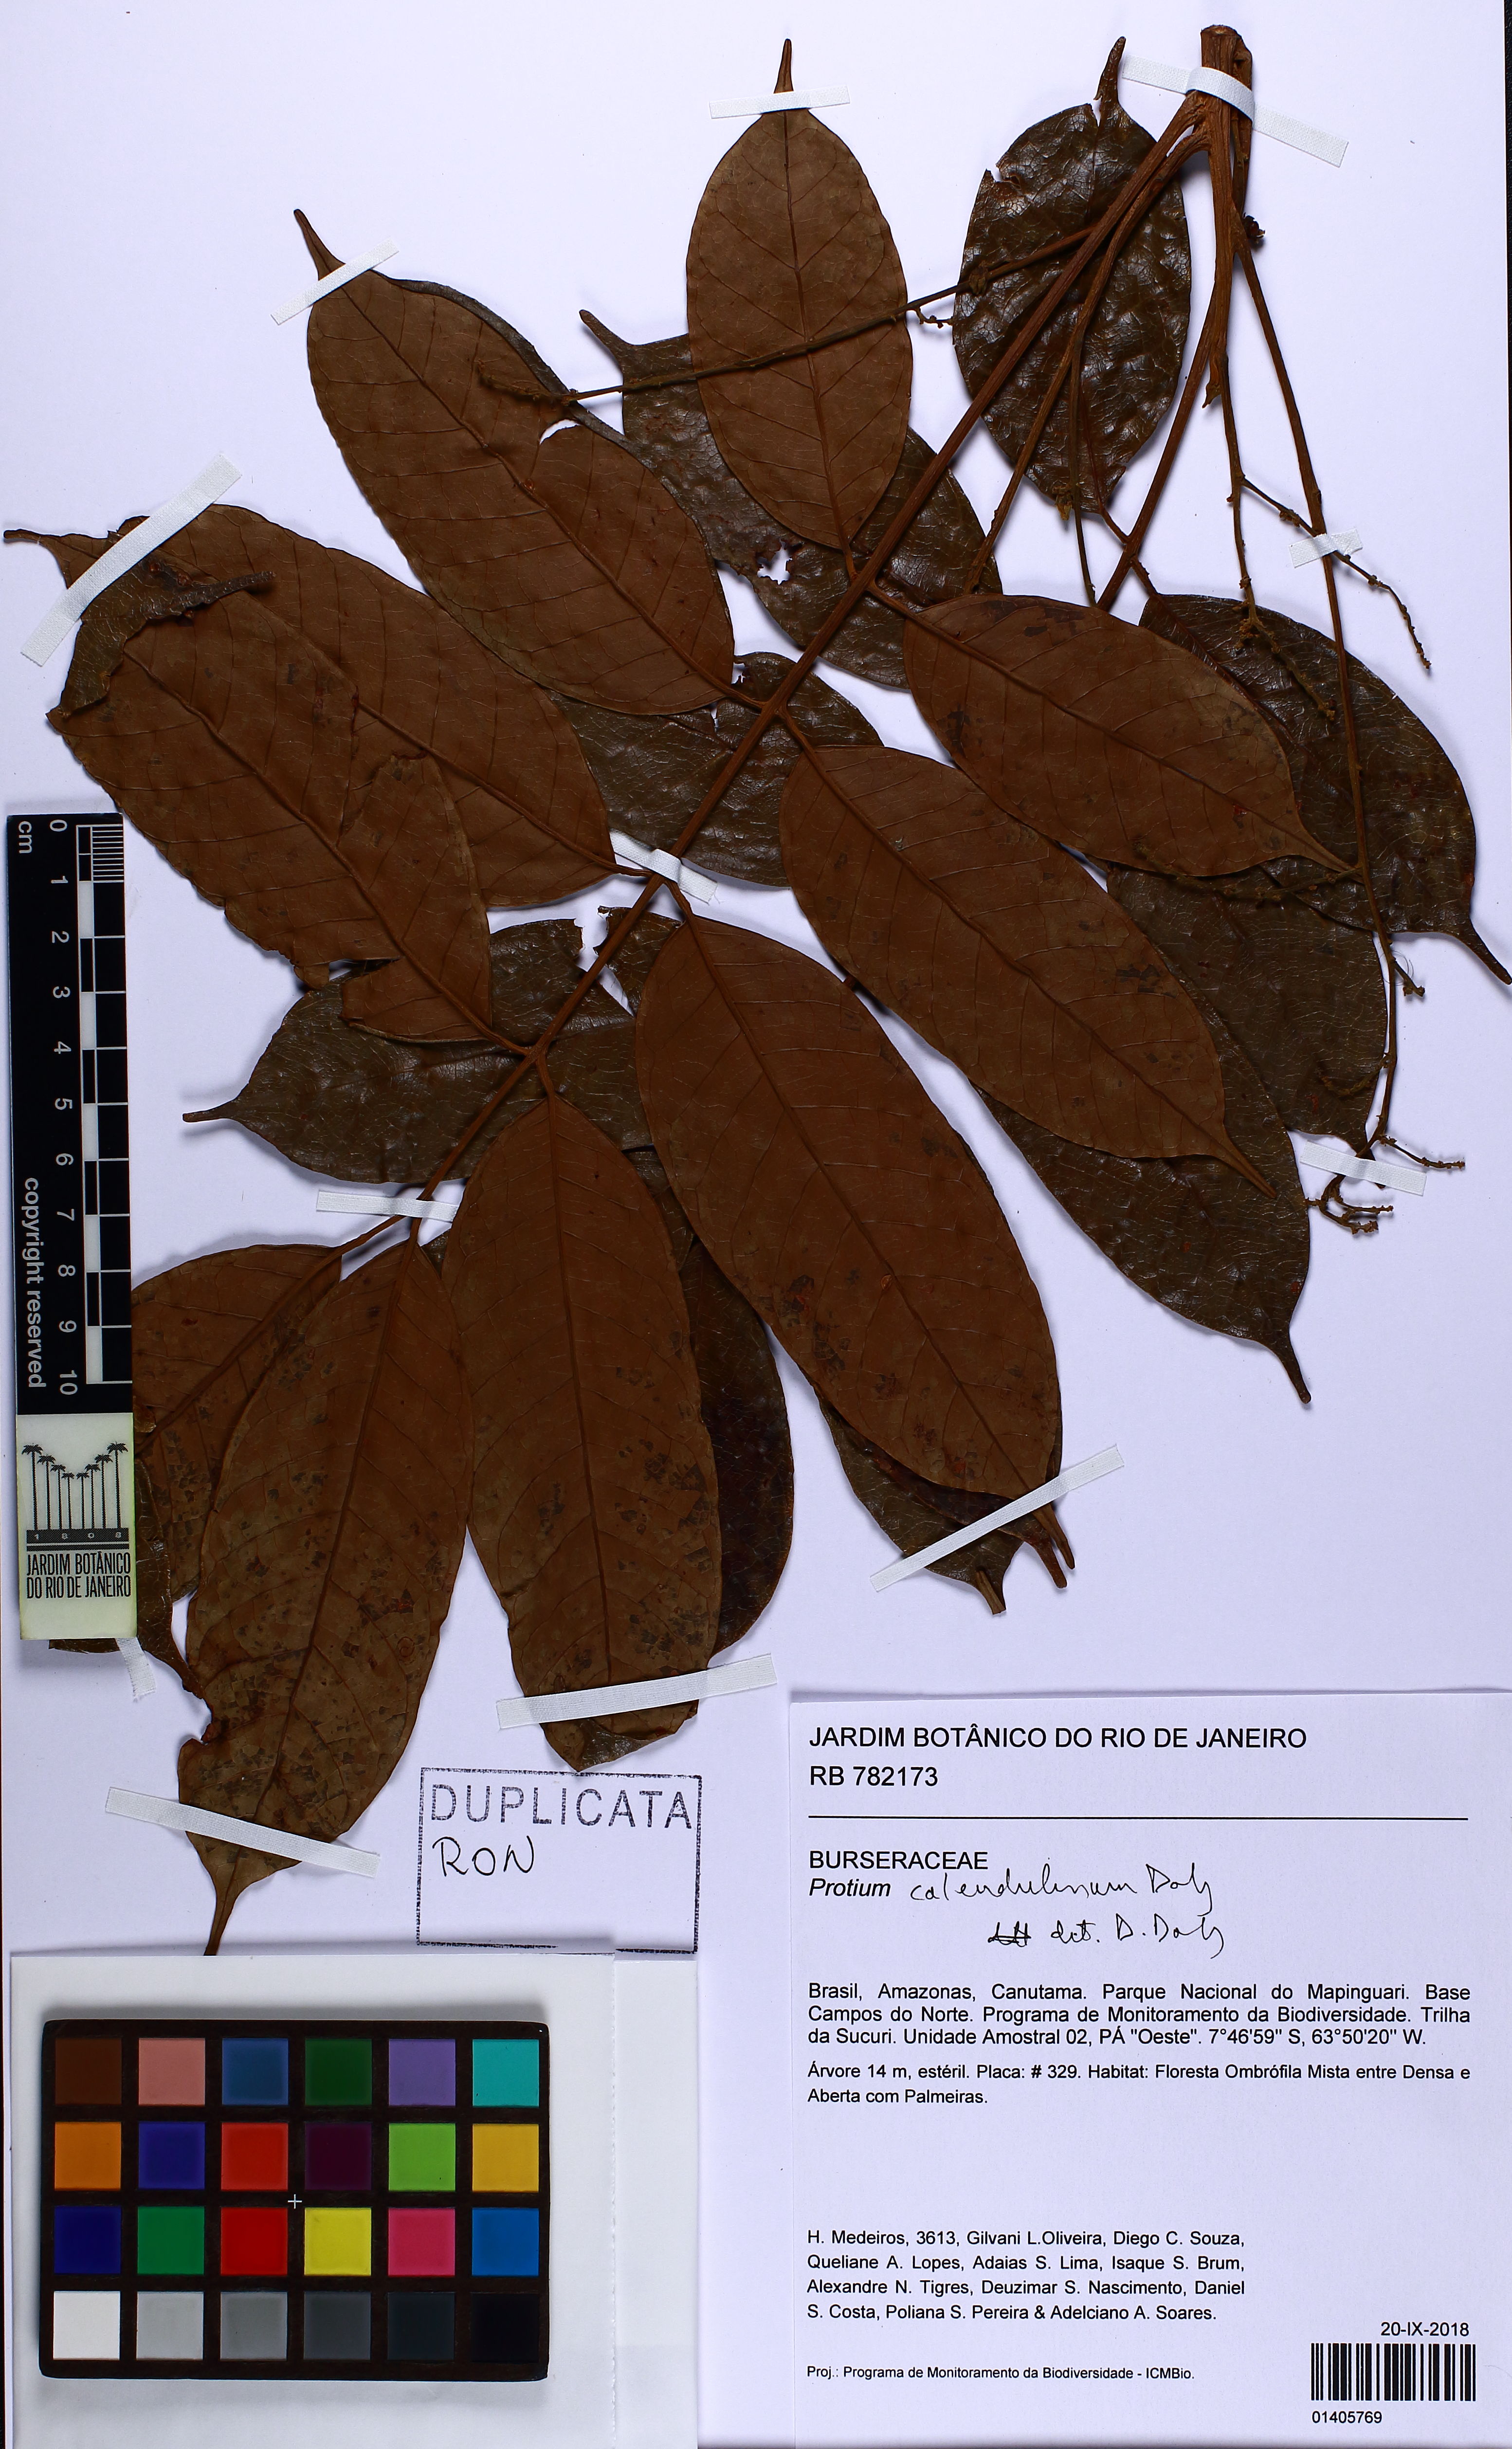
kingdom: Plantae
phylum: Tracheophyta
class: Magnoliopsida
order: Sapindales
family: Burseraceae
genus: Protium
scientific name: Protium calendulinum
